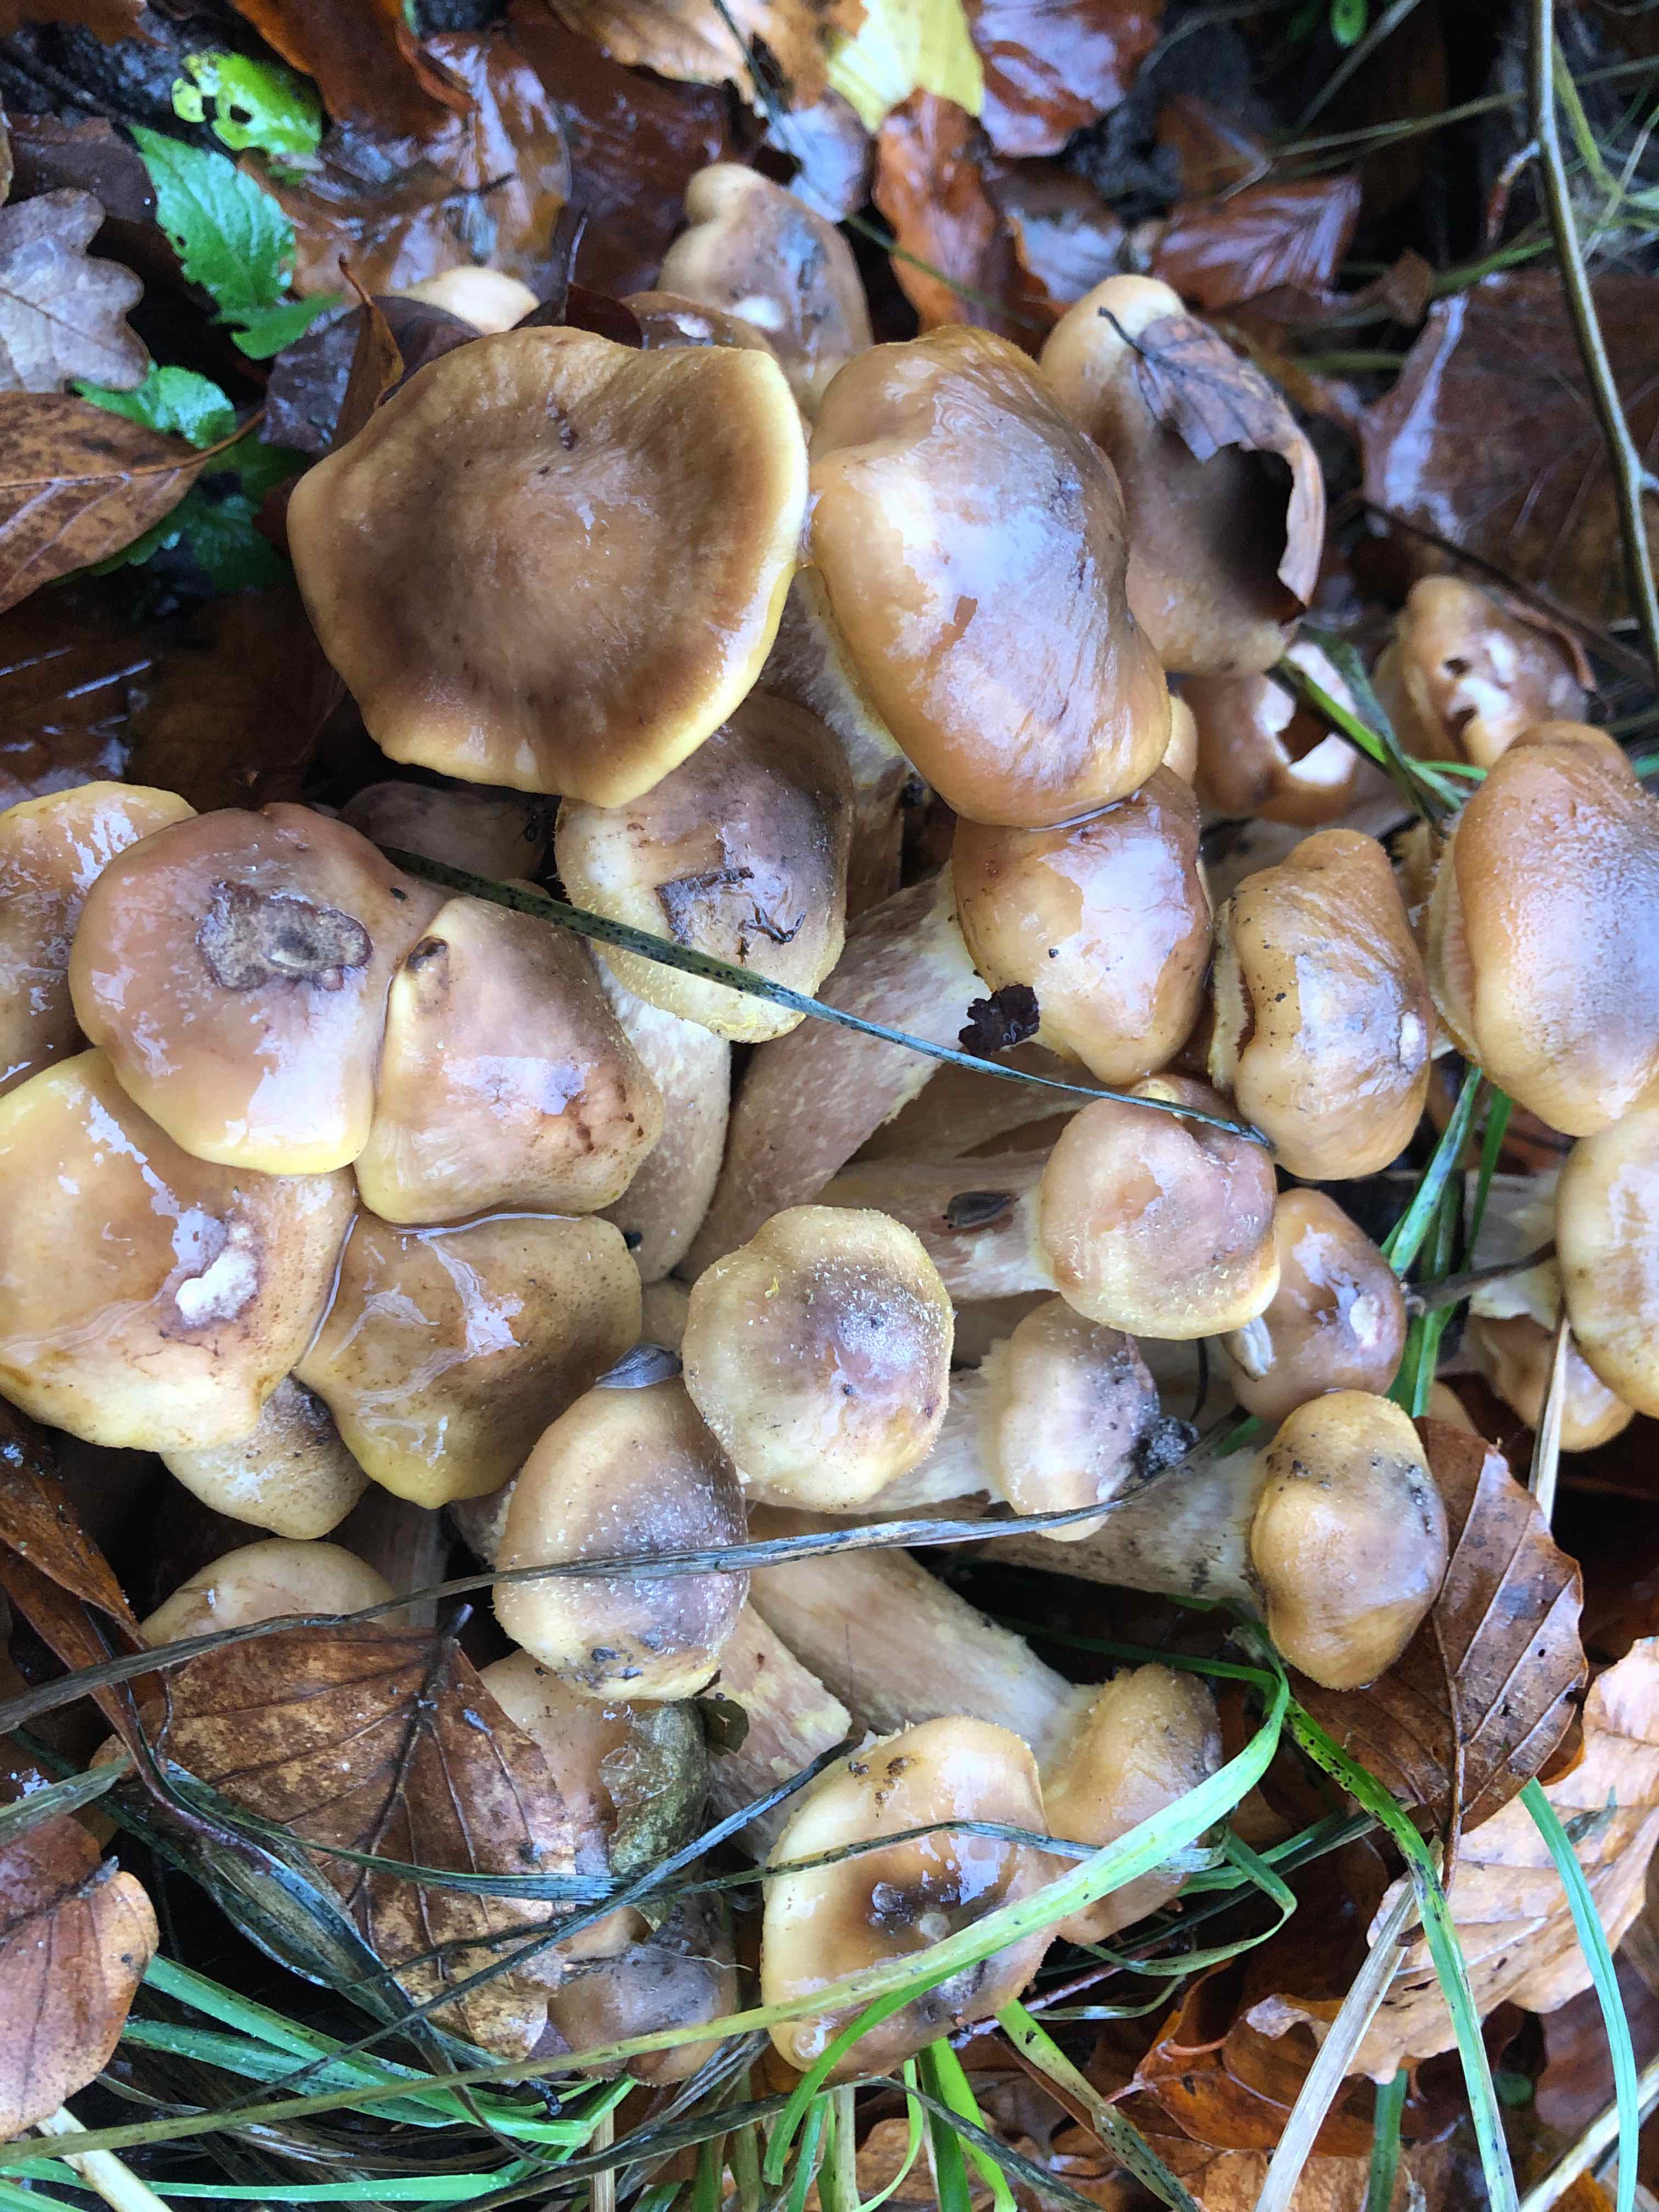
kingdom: Fungi
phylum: Basidiomycota
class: Agaricomycetes
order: Agaricales
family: Physalacriaceae
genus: Armillaria
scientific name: Armillaria lutea
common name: køllestokket honningsvamp
